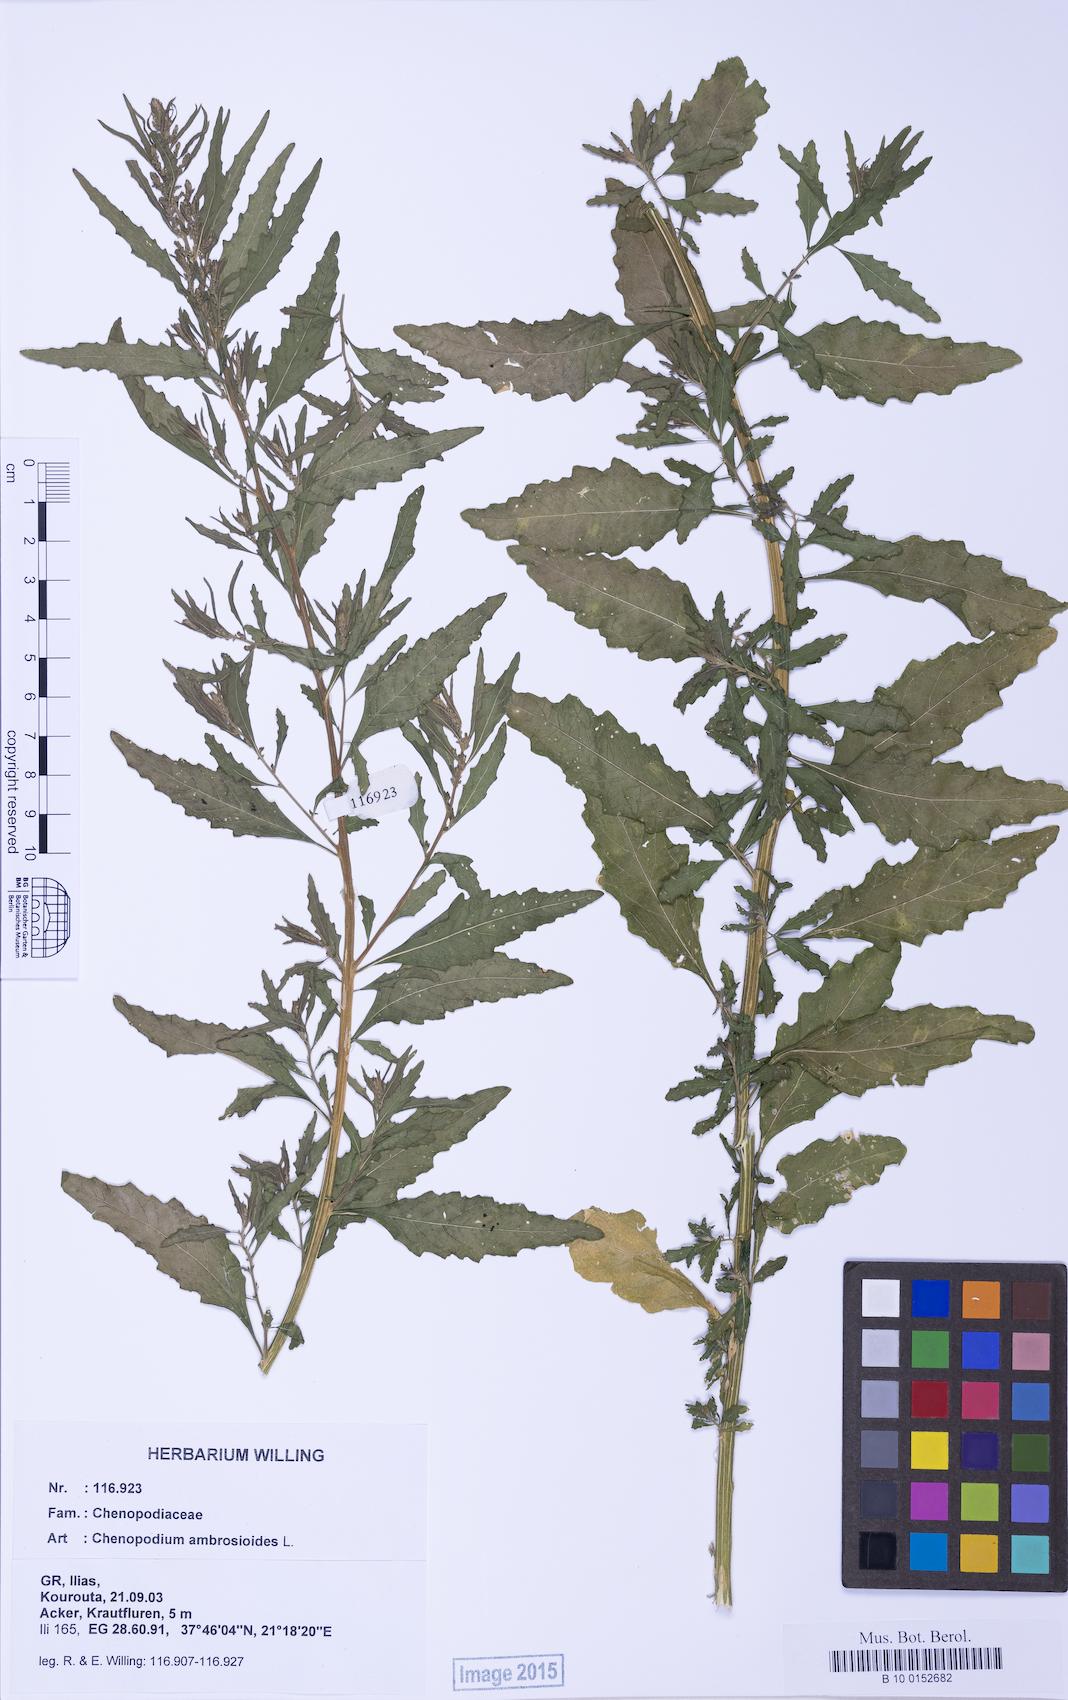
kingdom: Plantae
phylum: Tracheophyta
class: Magnoliopsida
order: Caryophyllales
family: Amaranthaceae
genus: Dysphania
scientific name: Dysphania ambrosioides
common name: Wormseed
